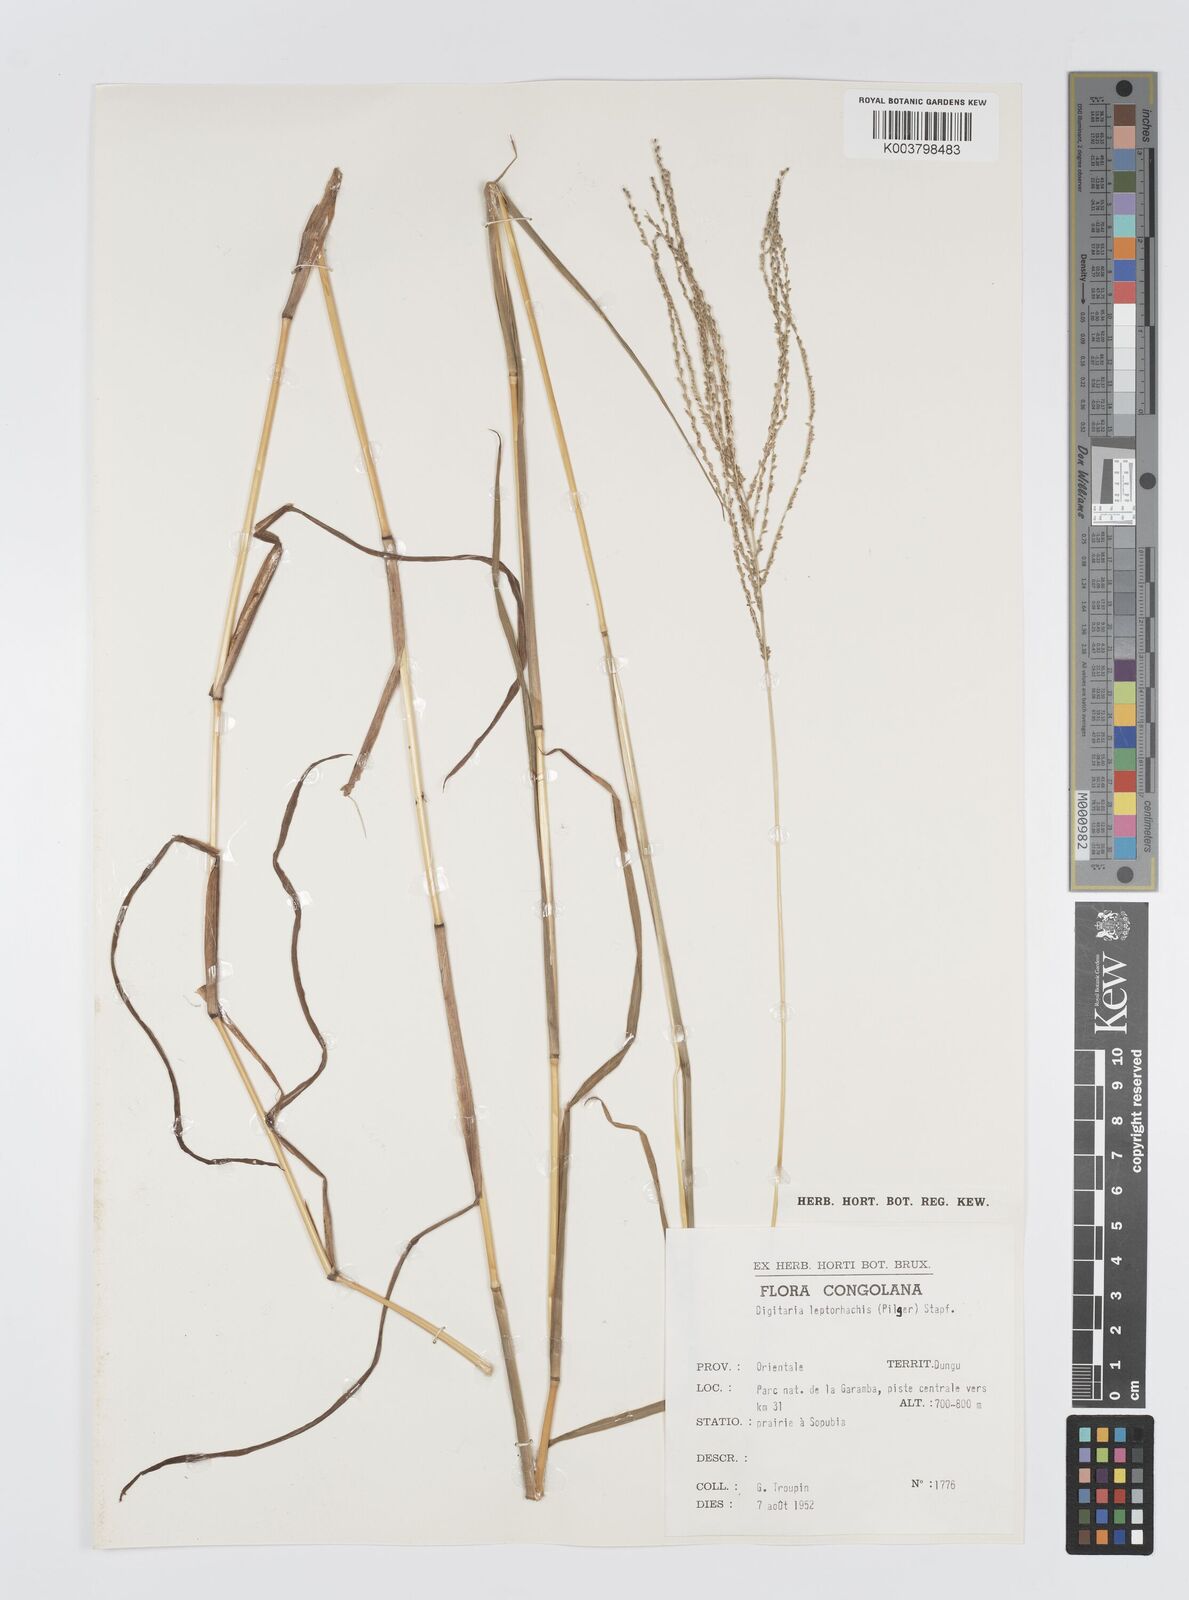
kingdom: Plantae
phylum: Tracheophyta
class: Liliopsida
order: Poales
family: Poaceae
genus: Digitaria
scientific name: Digitaria leptorhachis
